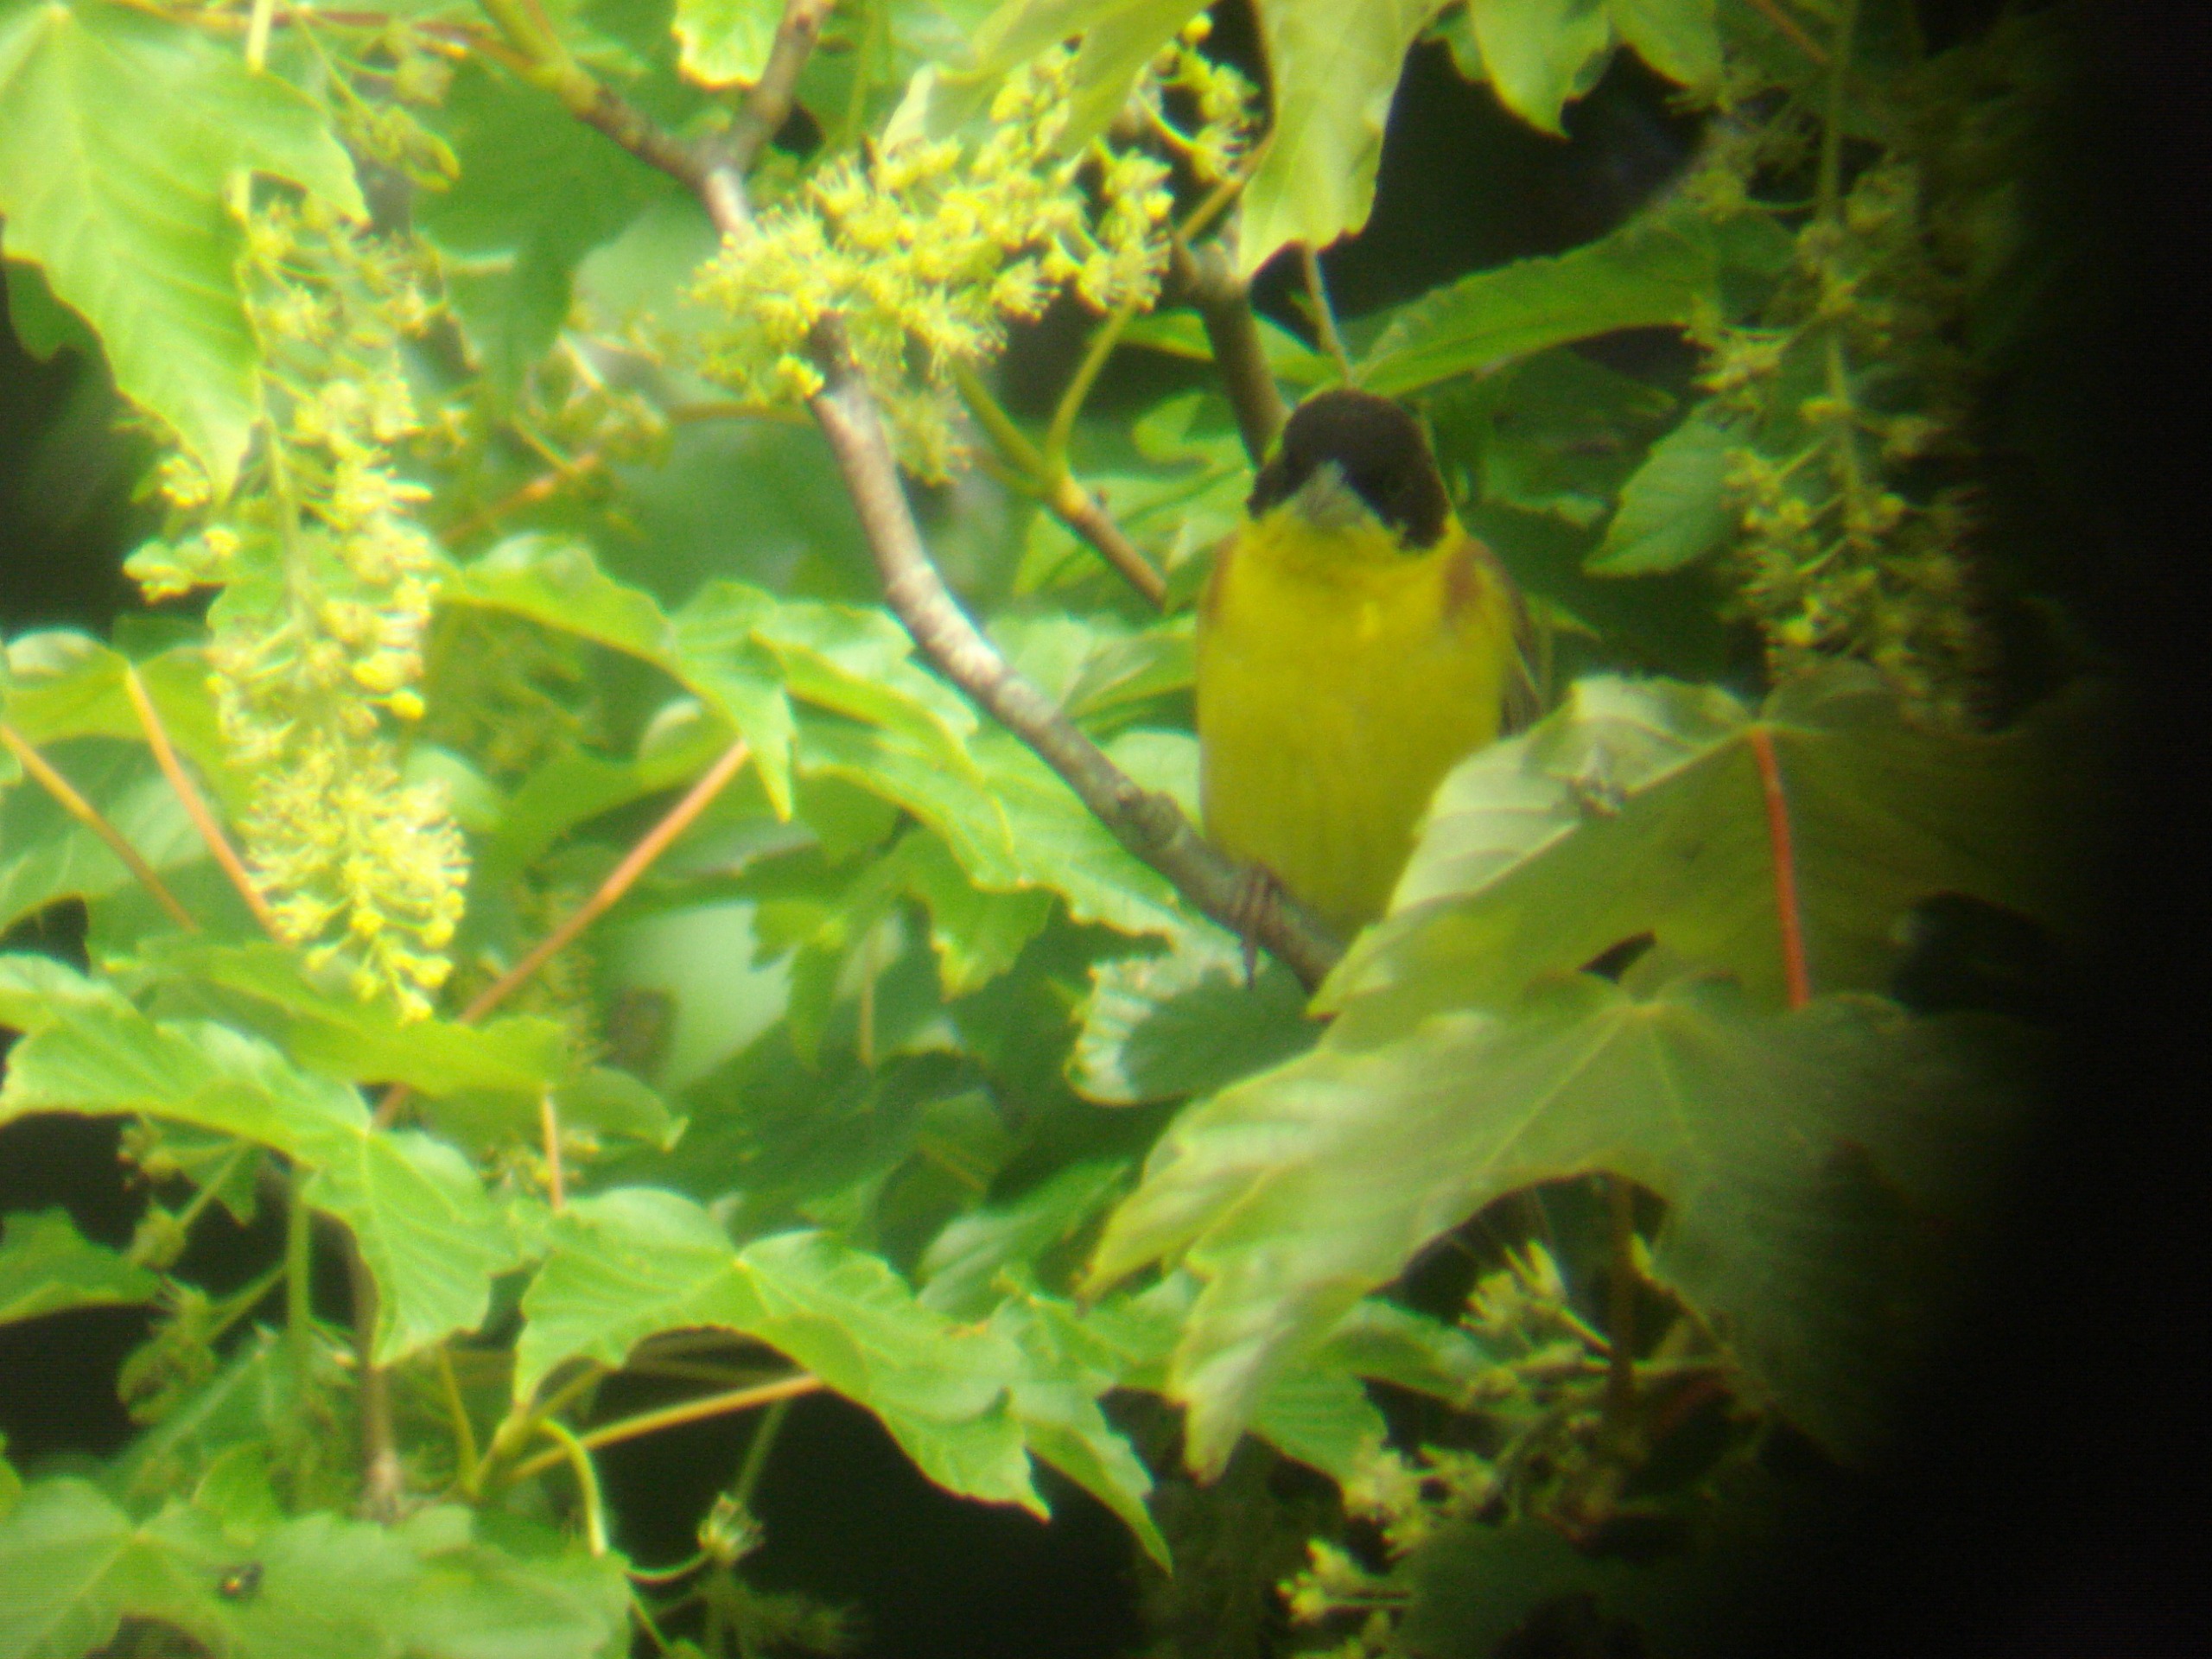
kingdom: Animalia
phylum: Chordata
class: Aves
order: Passeriformes
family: Emberizidae
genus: Emberiza
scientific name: Emberiza melanocephala
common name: Hætteværling
